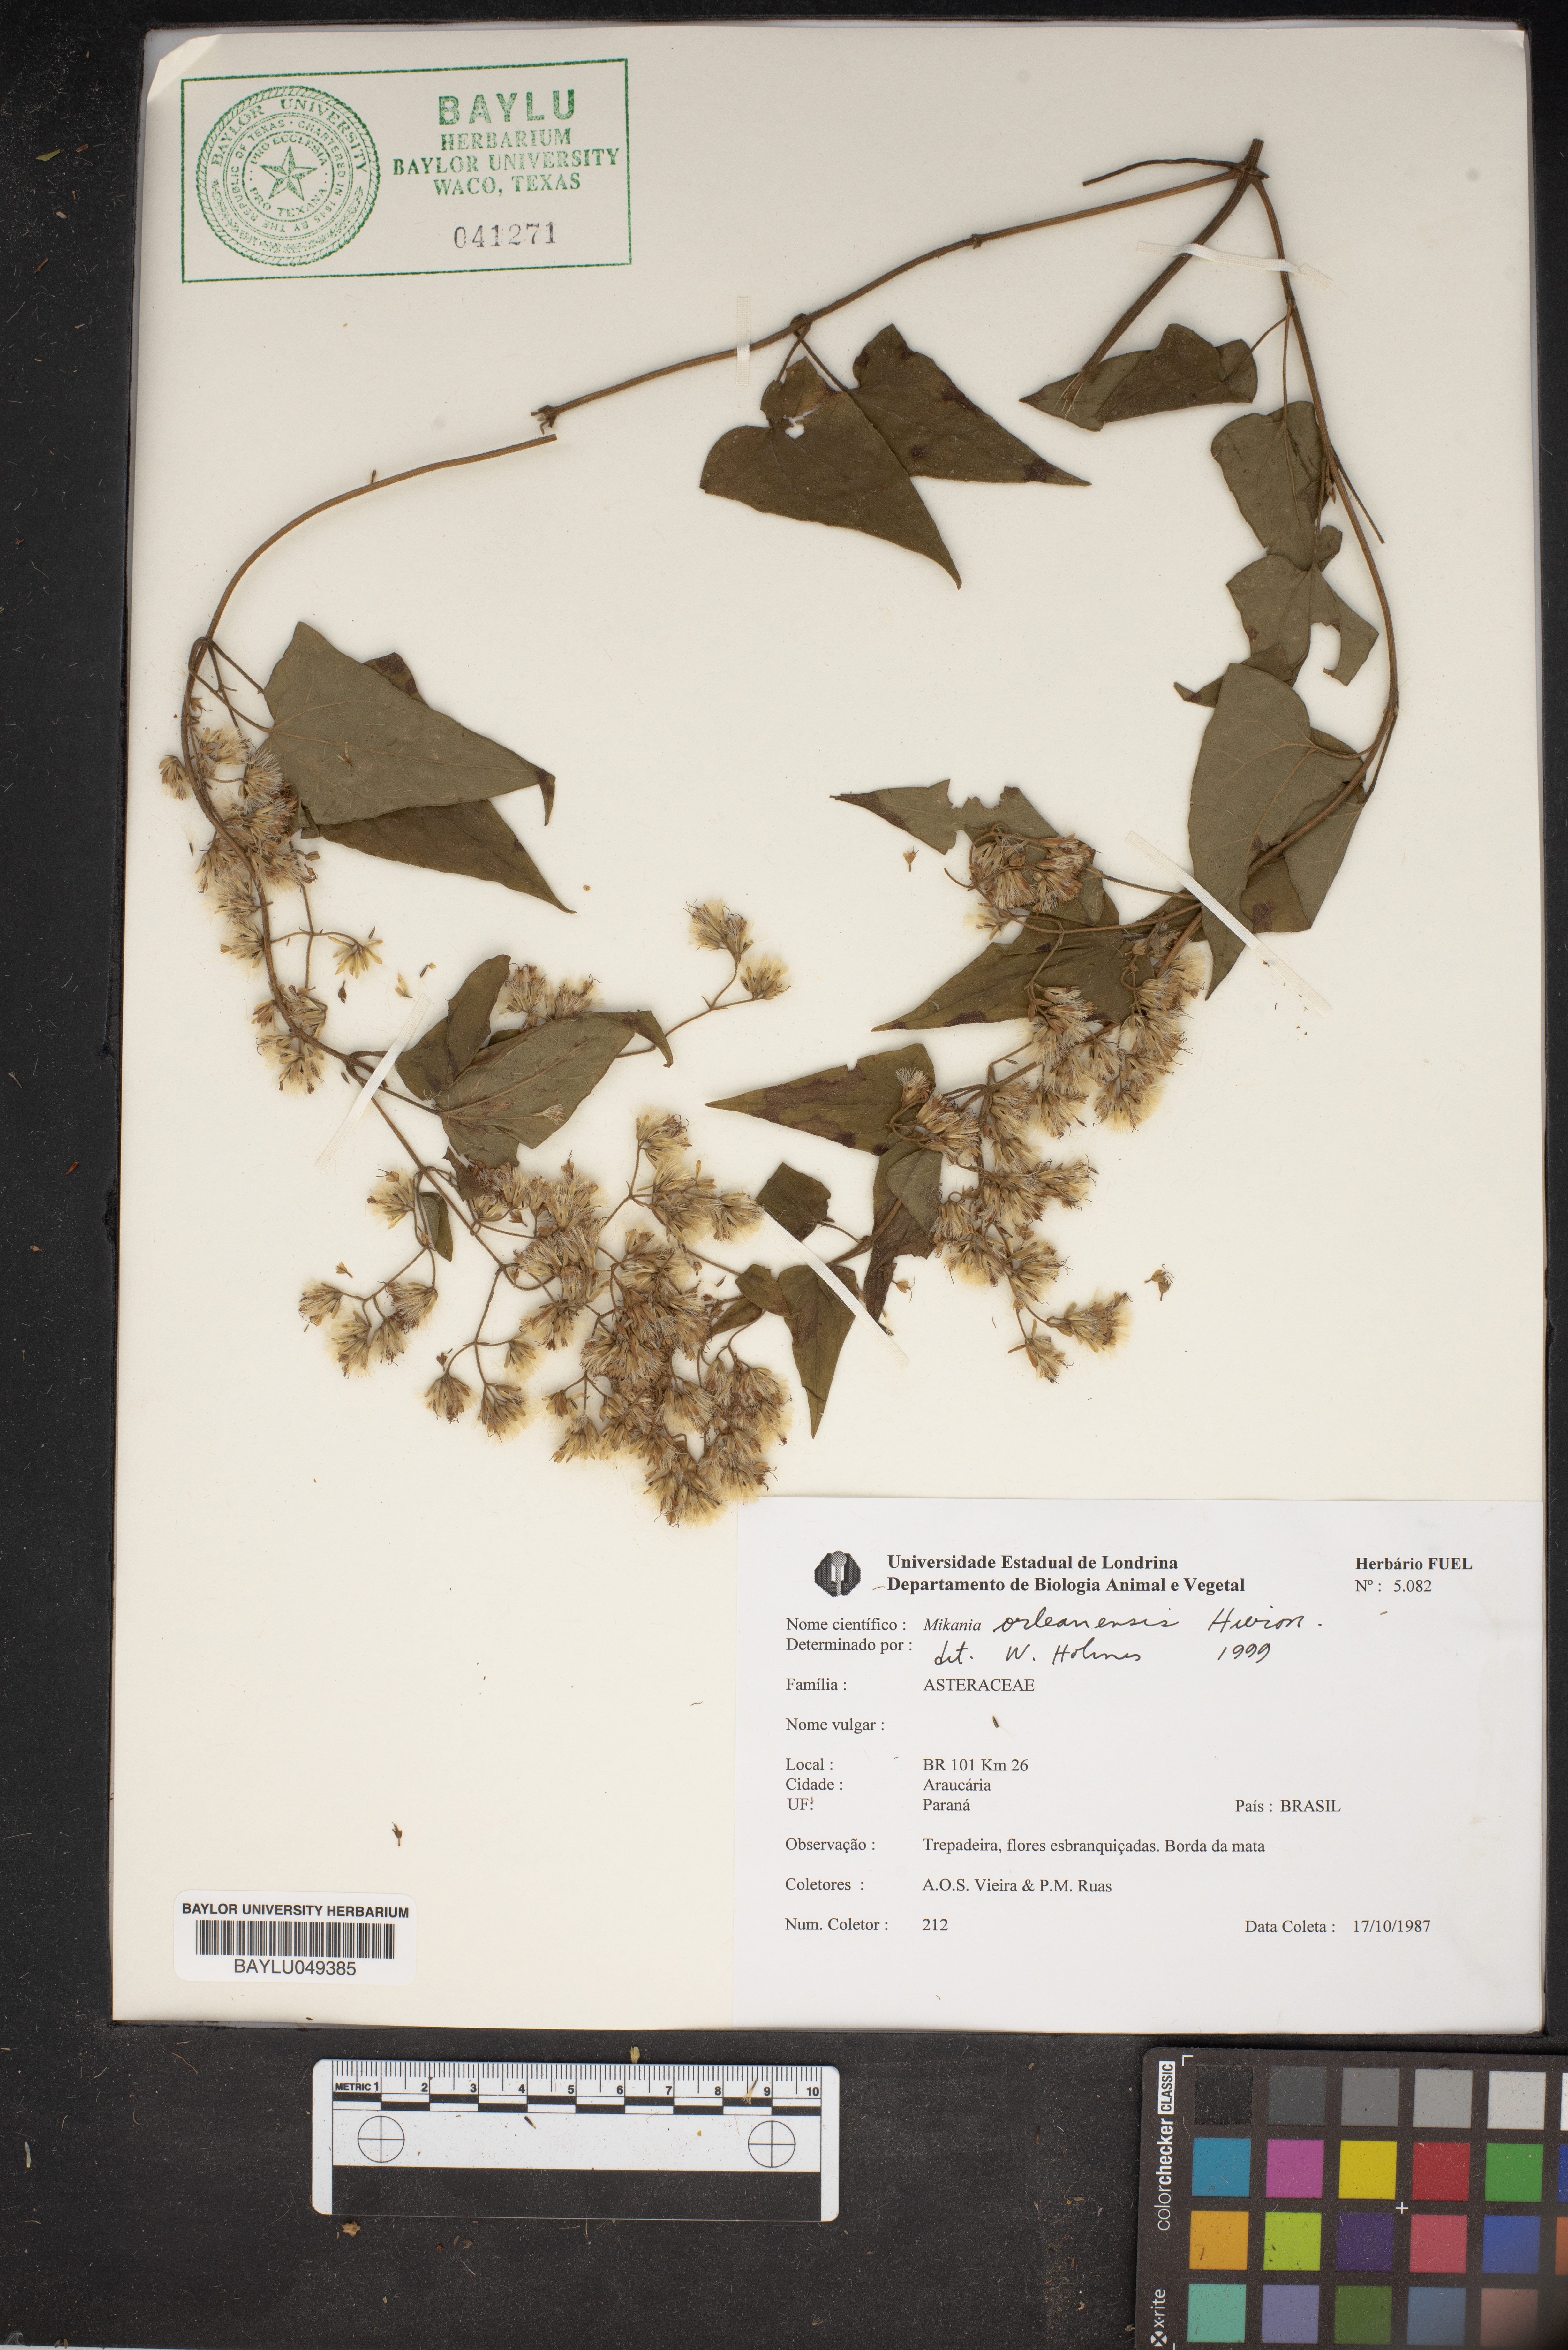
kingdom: Plantae
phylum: Tracheophyta
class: Magnoliopsida
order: Asterales
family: Asteraceae
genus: Mikania
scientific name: Mikania orleansensis
